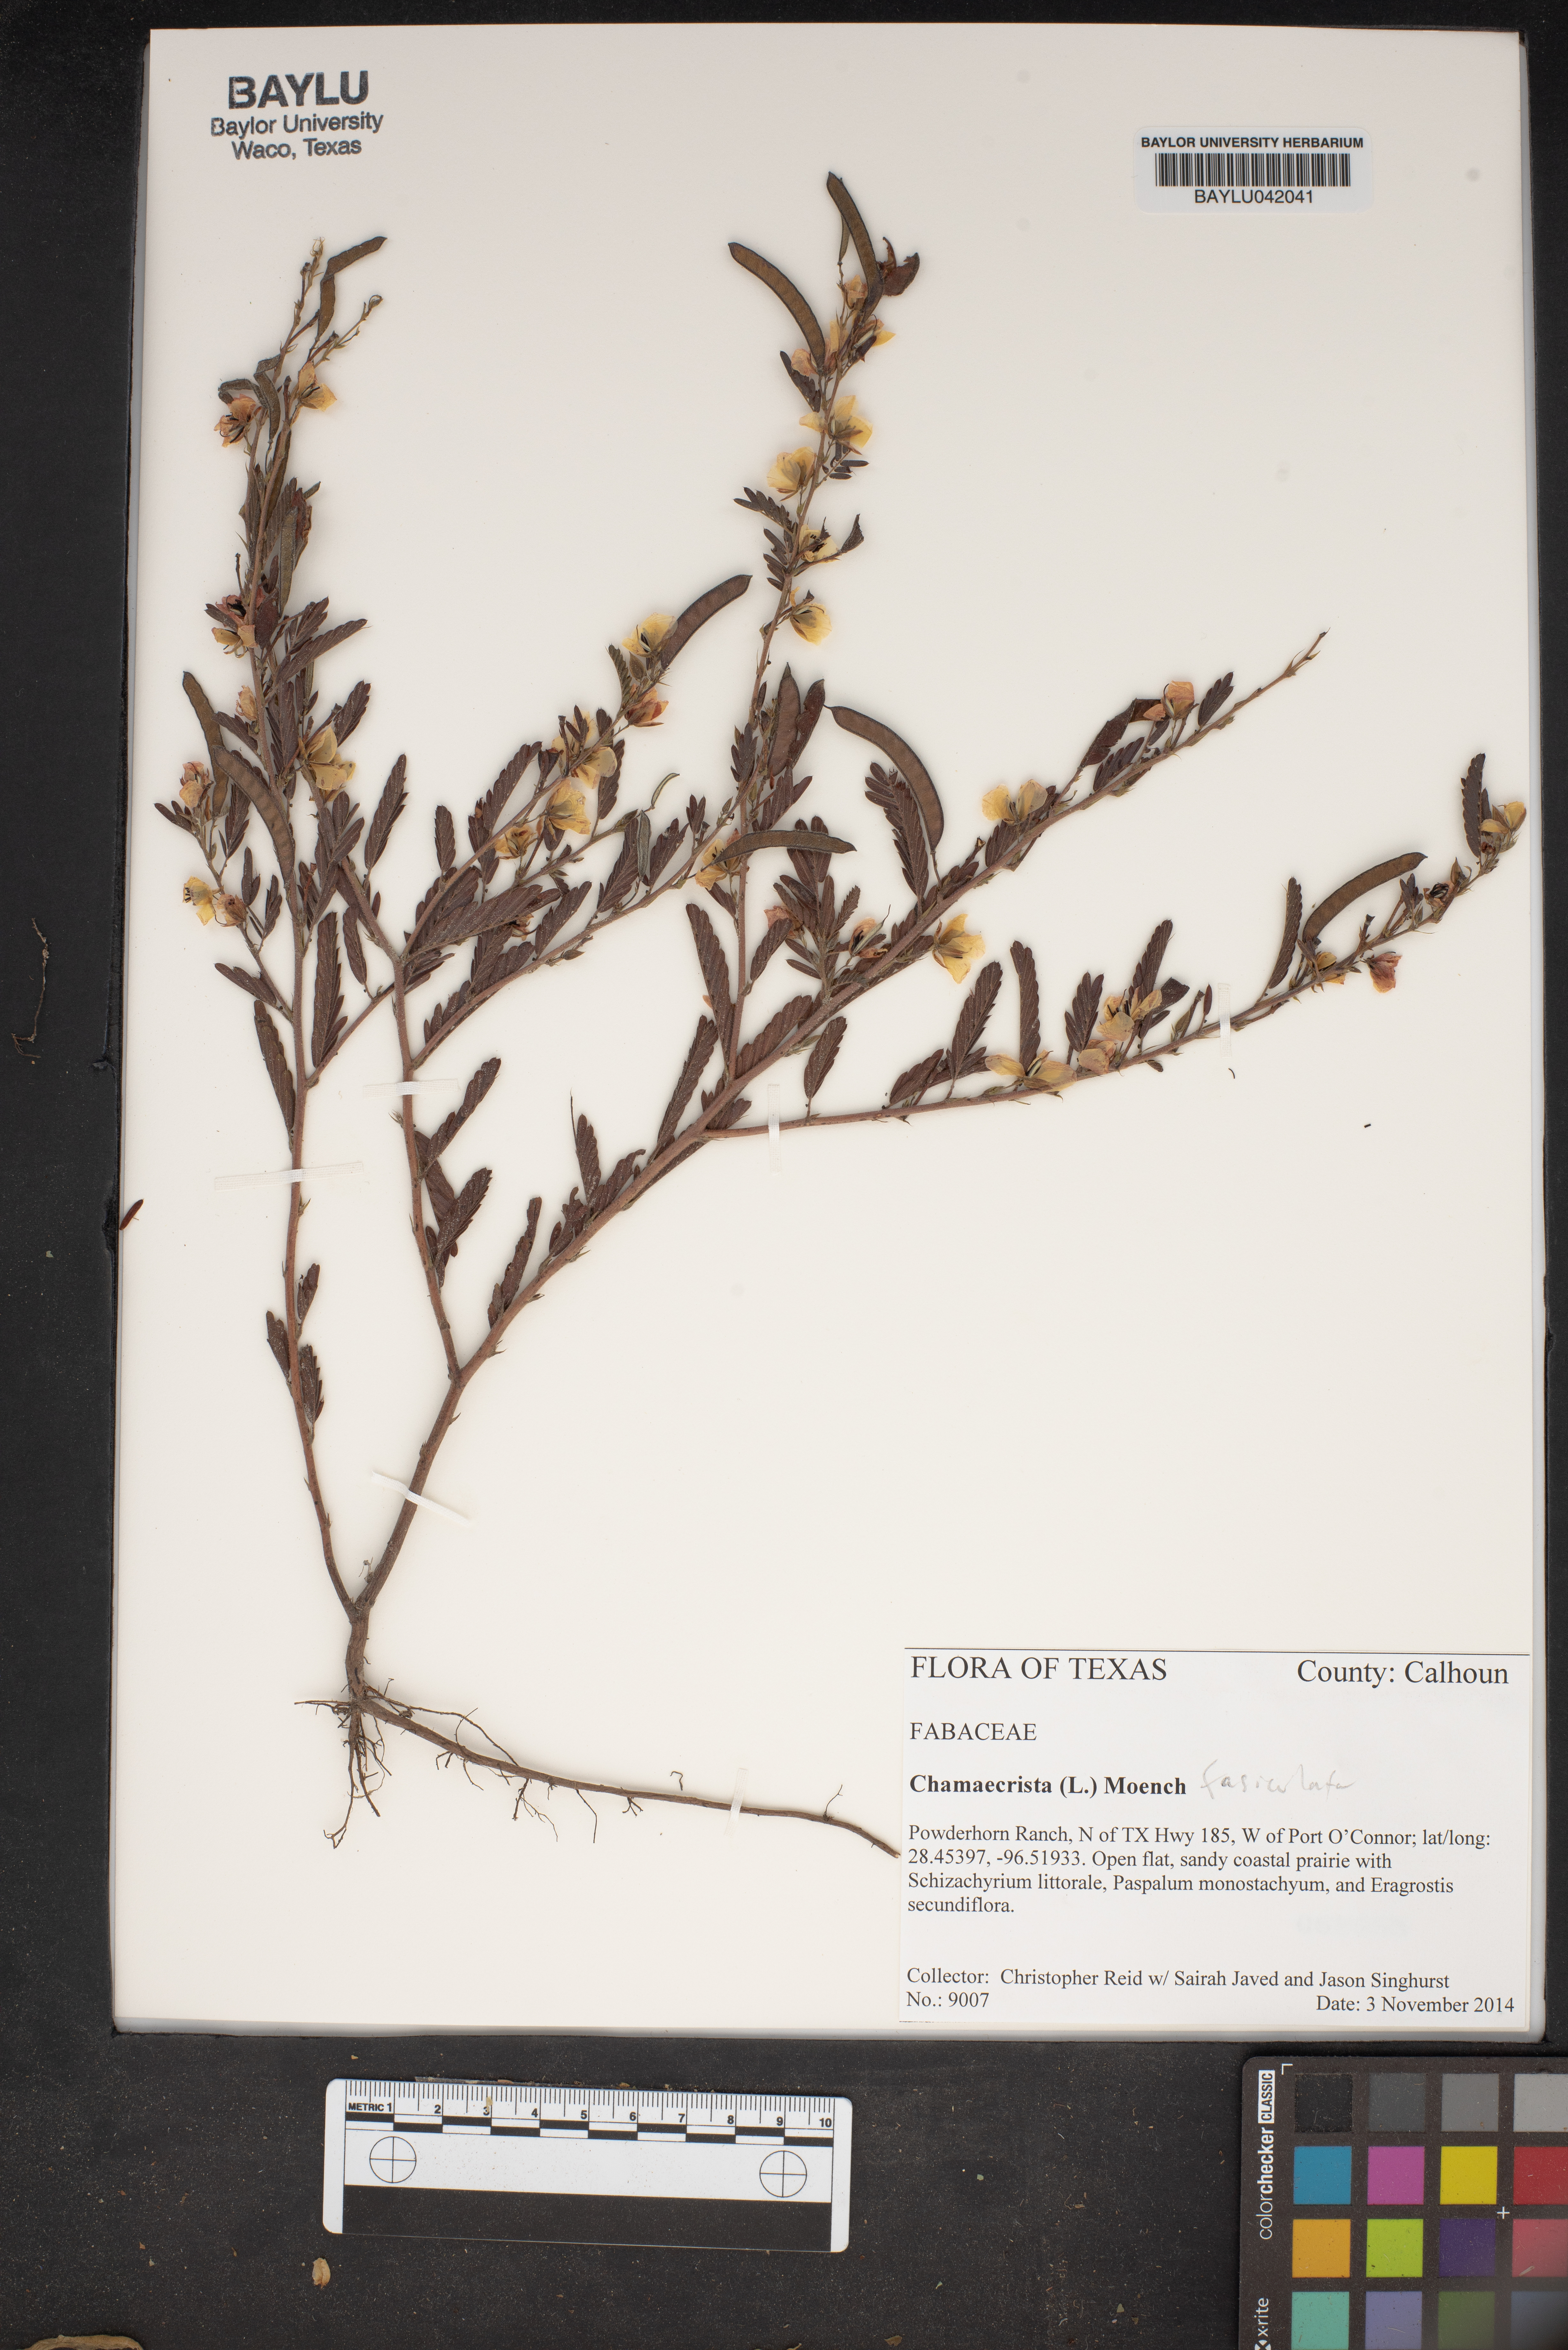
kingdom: Plantae
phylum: Tracheophyta
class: Magnoliopsida
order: Fabales
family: Fabaceae
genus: Chamaecrista
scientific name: Chamaecrista fasciculata
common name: Golden cassia
